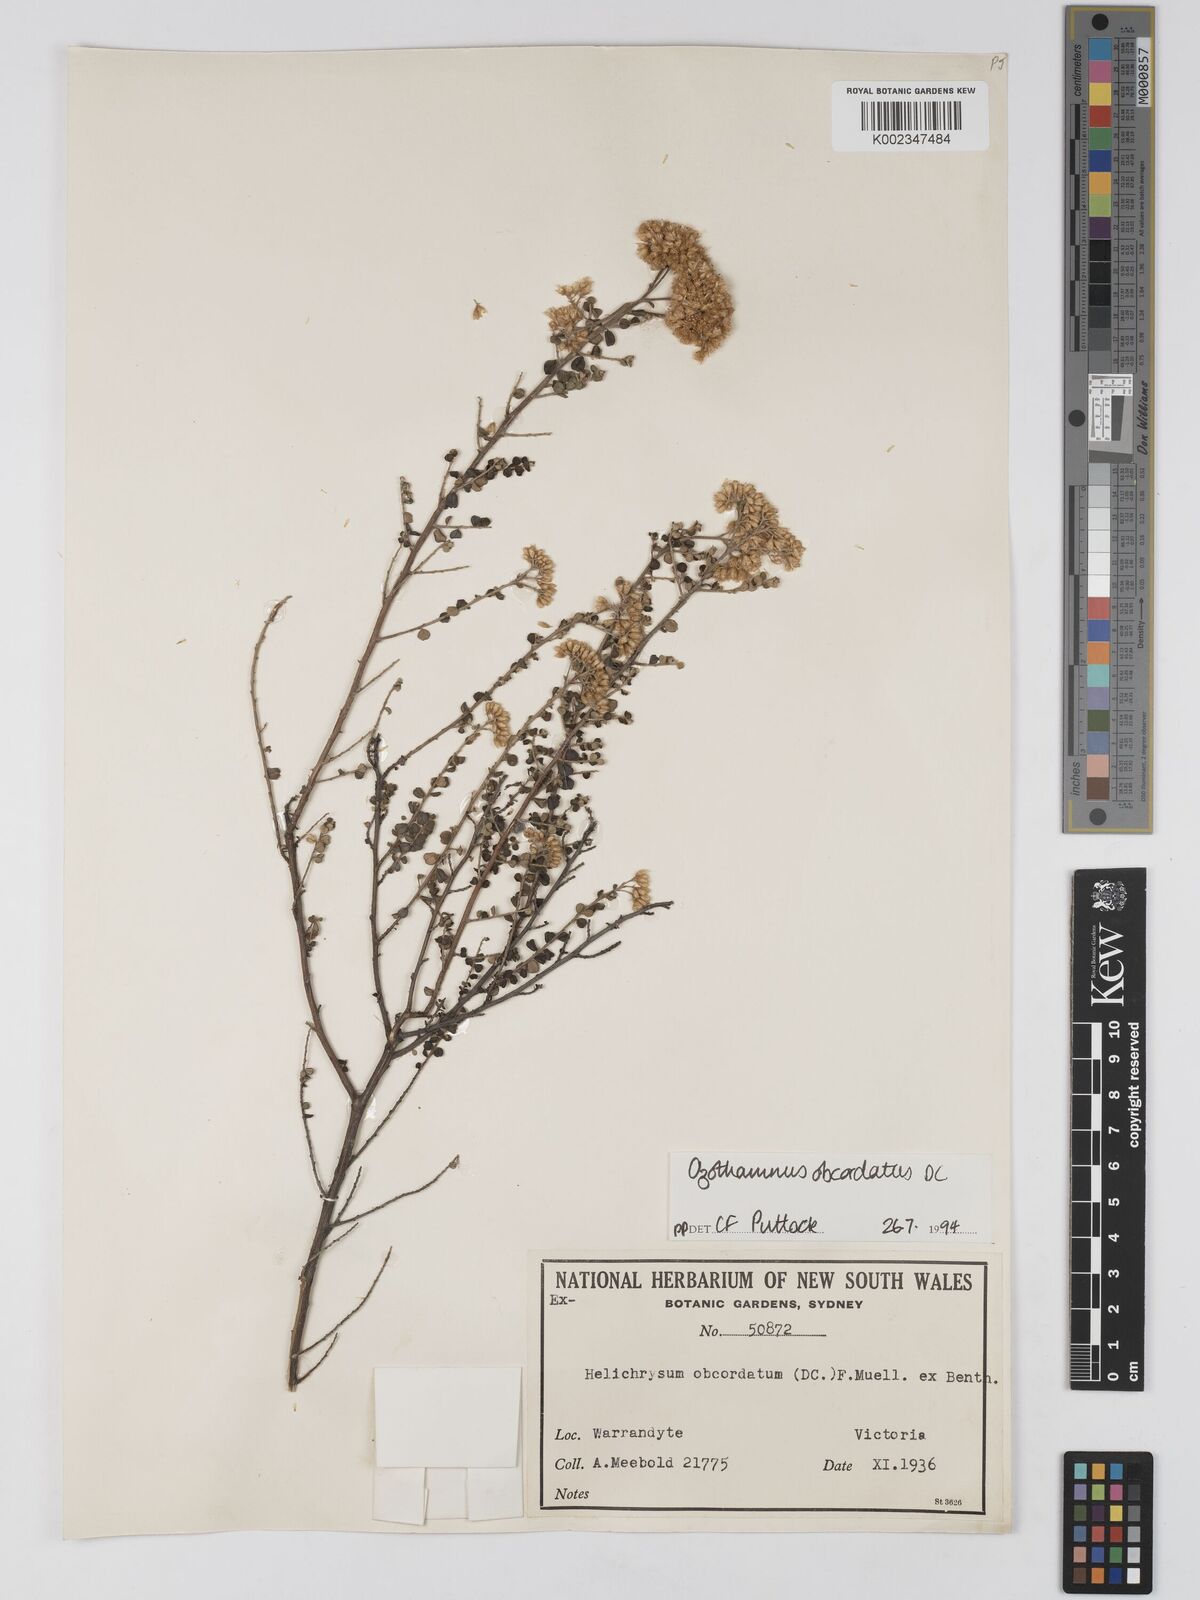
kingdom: Plantae
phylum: Tracheophyta
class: Magnoliopsida
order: Asterales
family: Asteraceae
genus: Ozothamnus
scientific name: Ozothamnus
